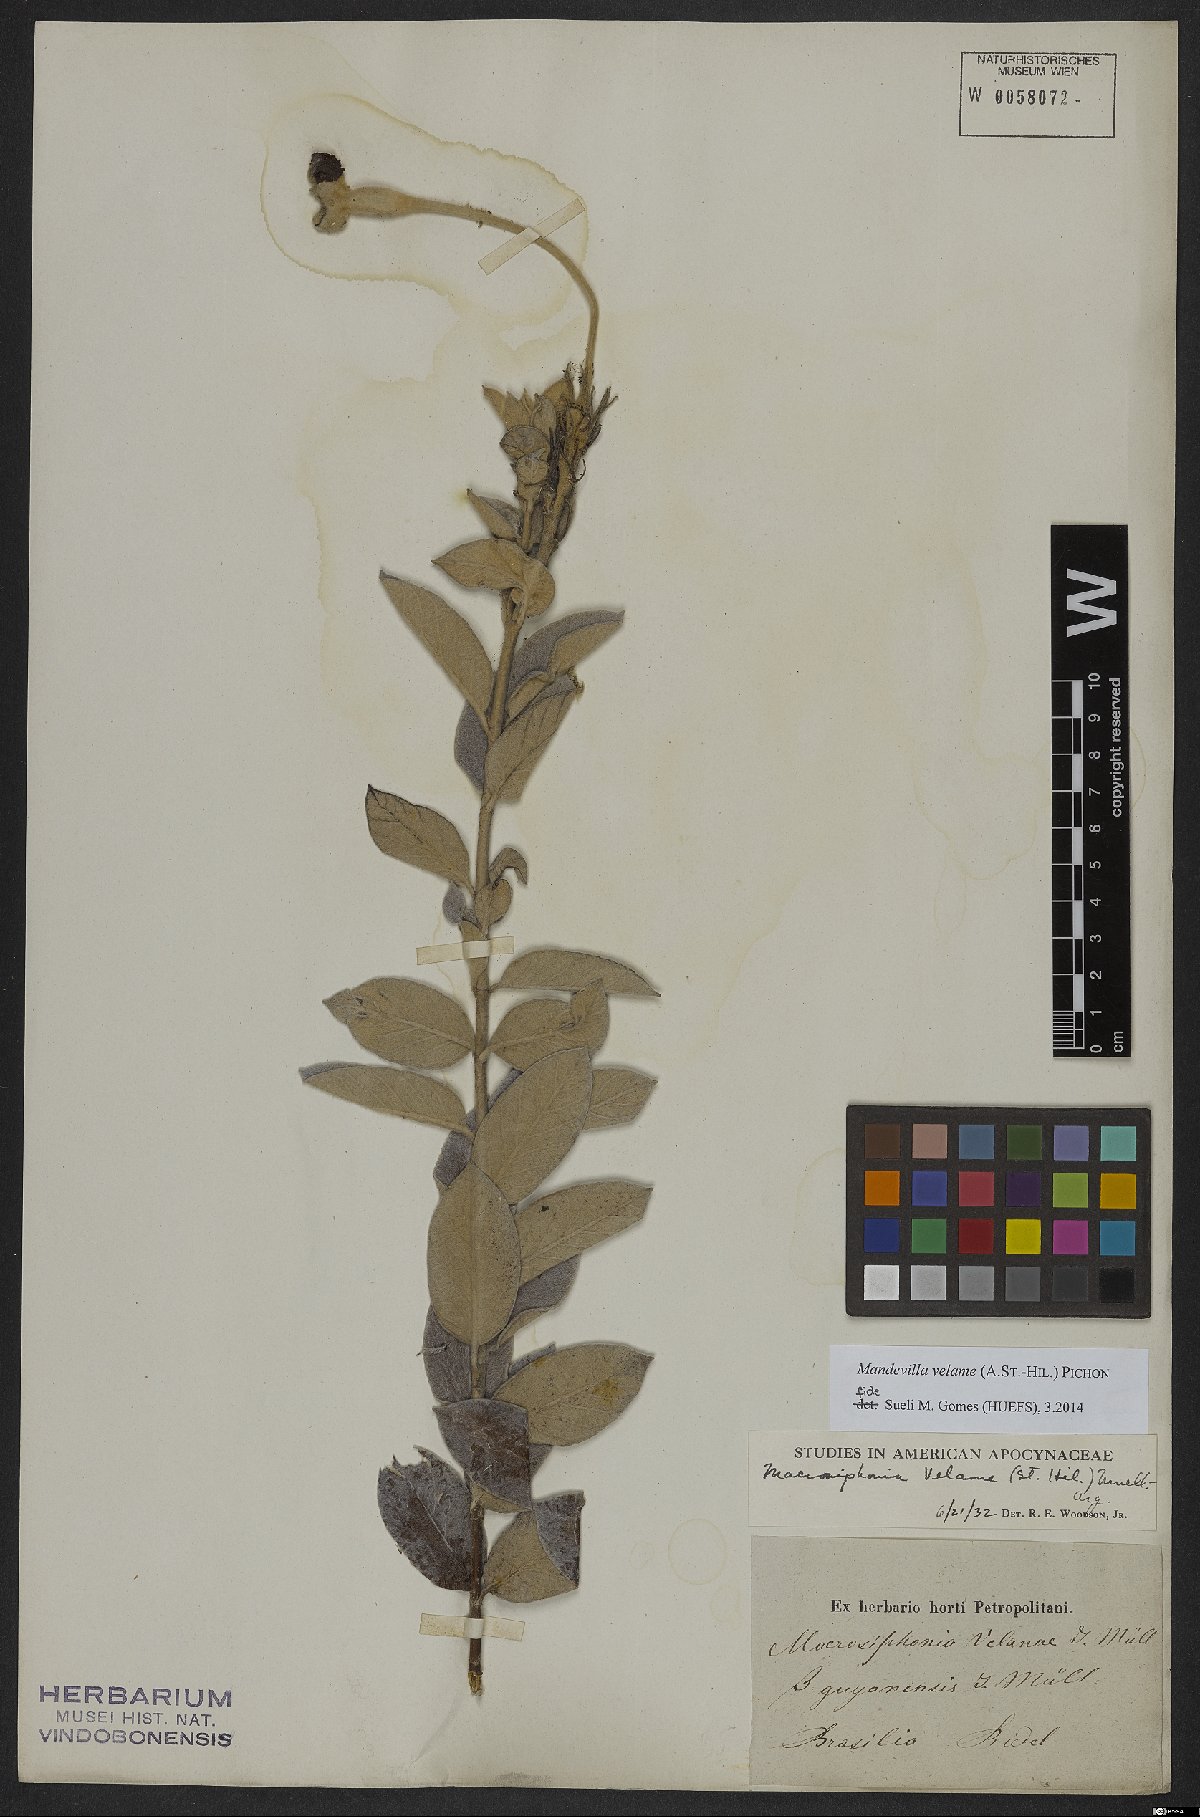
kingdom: Plantae
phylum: Tracheophyta
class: Magnoliopsida
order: Gentianales
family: Apocynaceae
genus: Mandevilla
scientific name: Mandevilla velame
